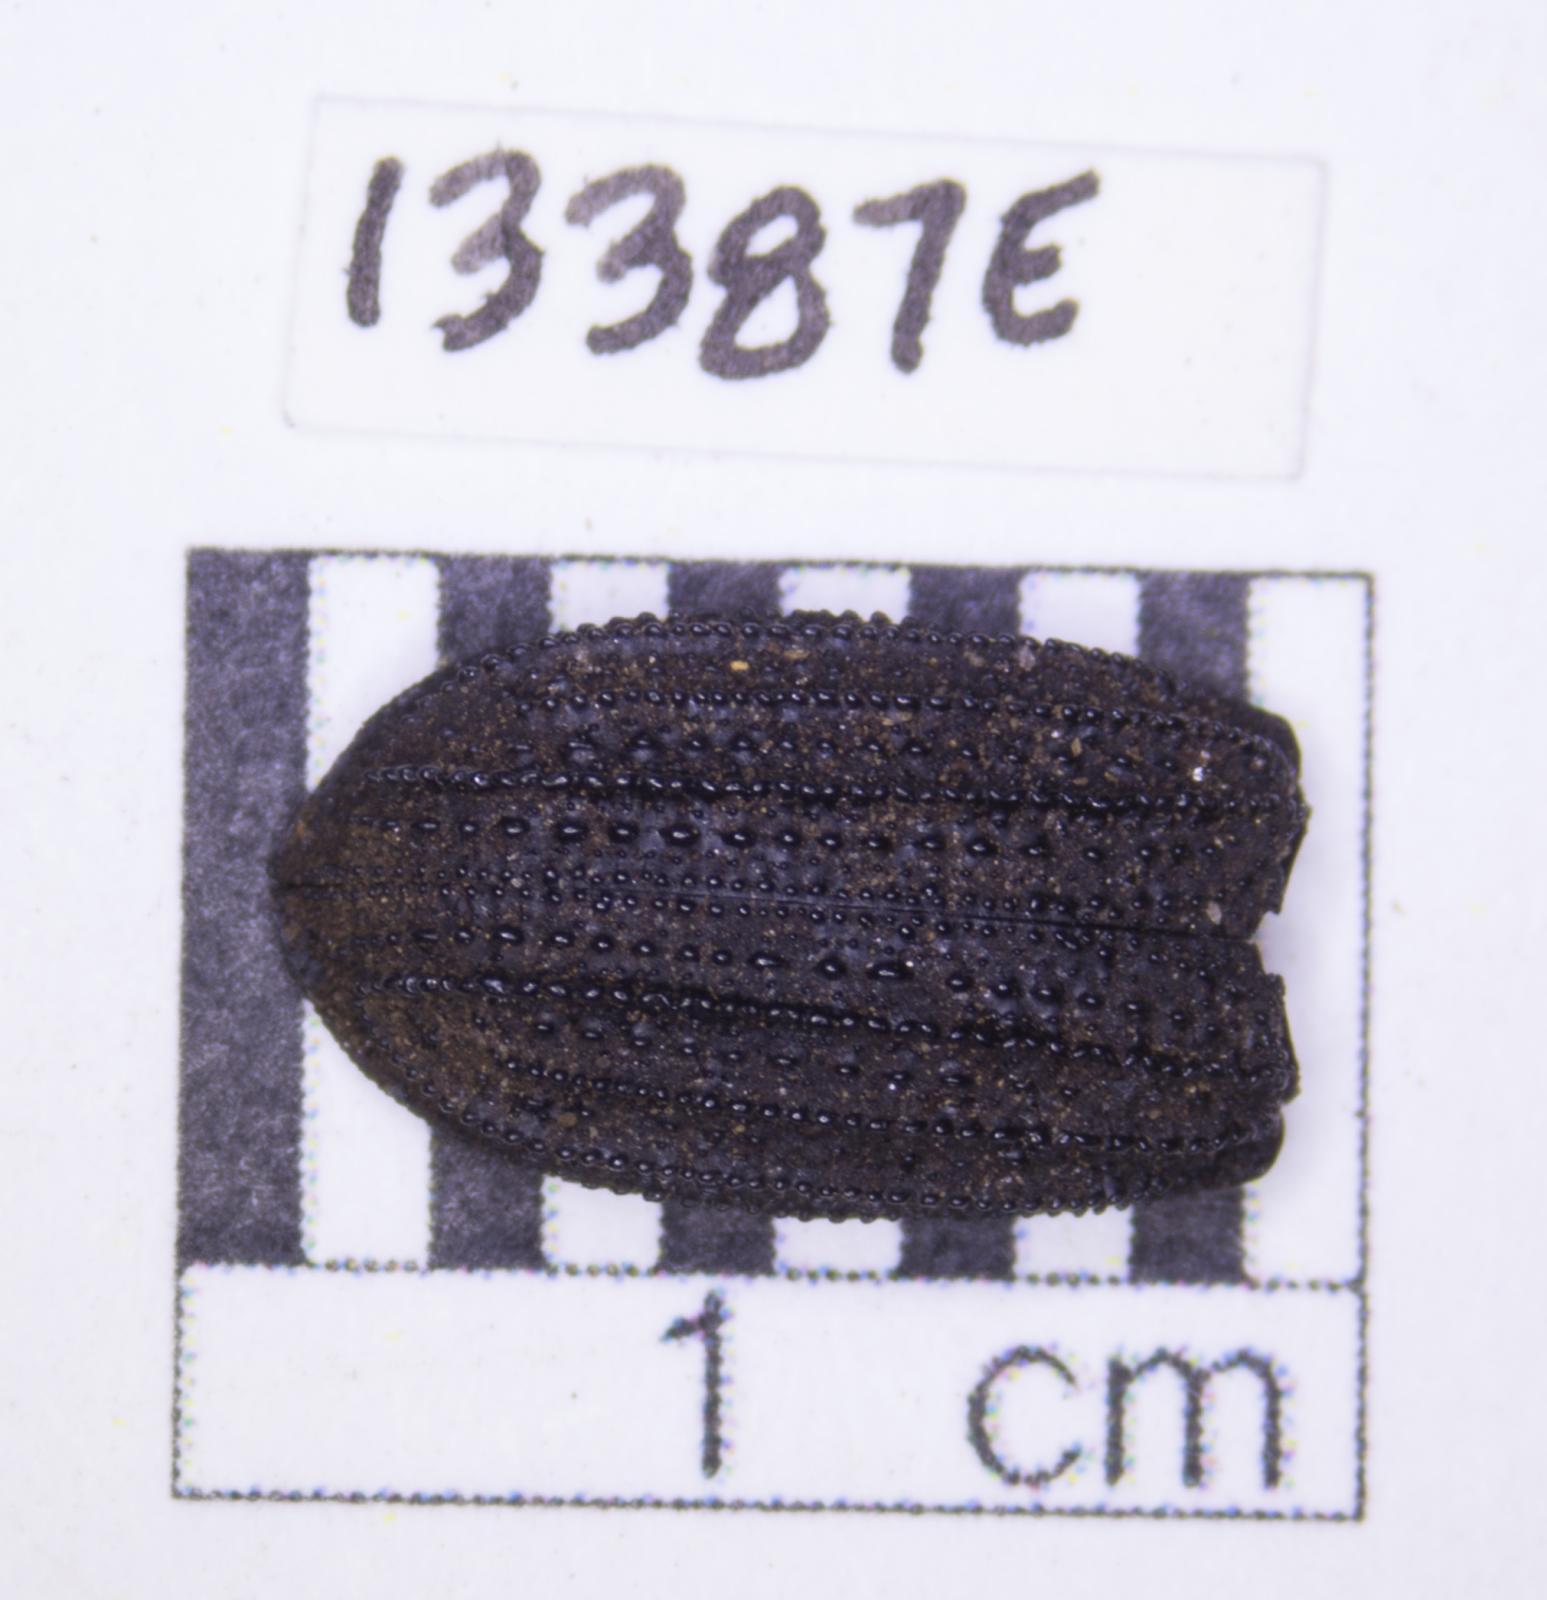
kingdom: Animalia
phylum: Arthropoda
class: Insecta
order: Coleoptera
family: Tenebrionidae
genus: Nyctoporis
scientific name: Nyctoporis carinata
